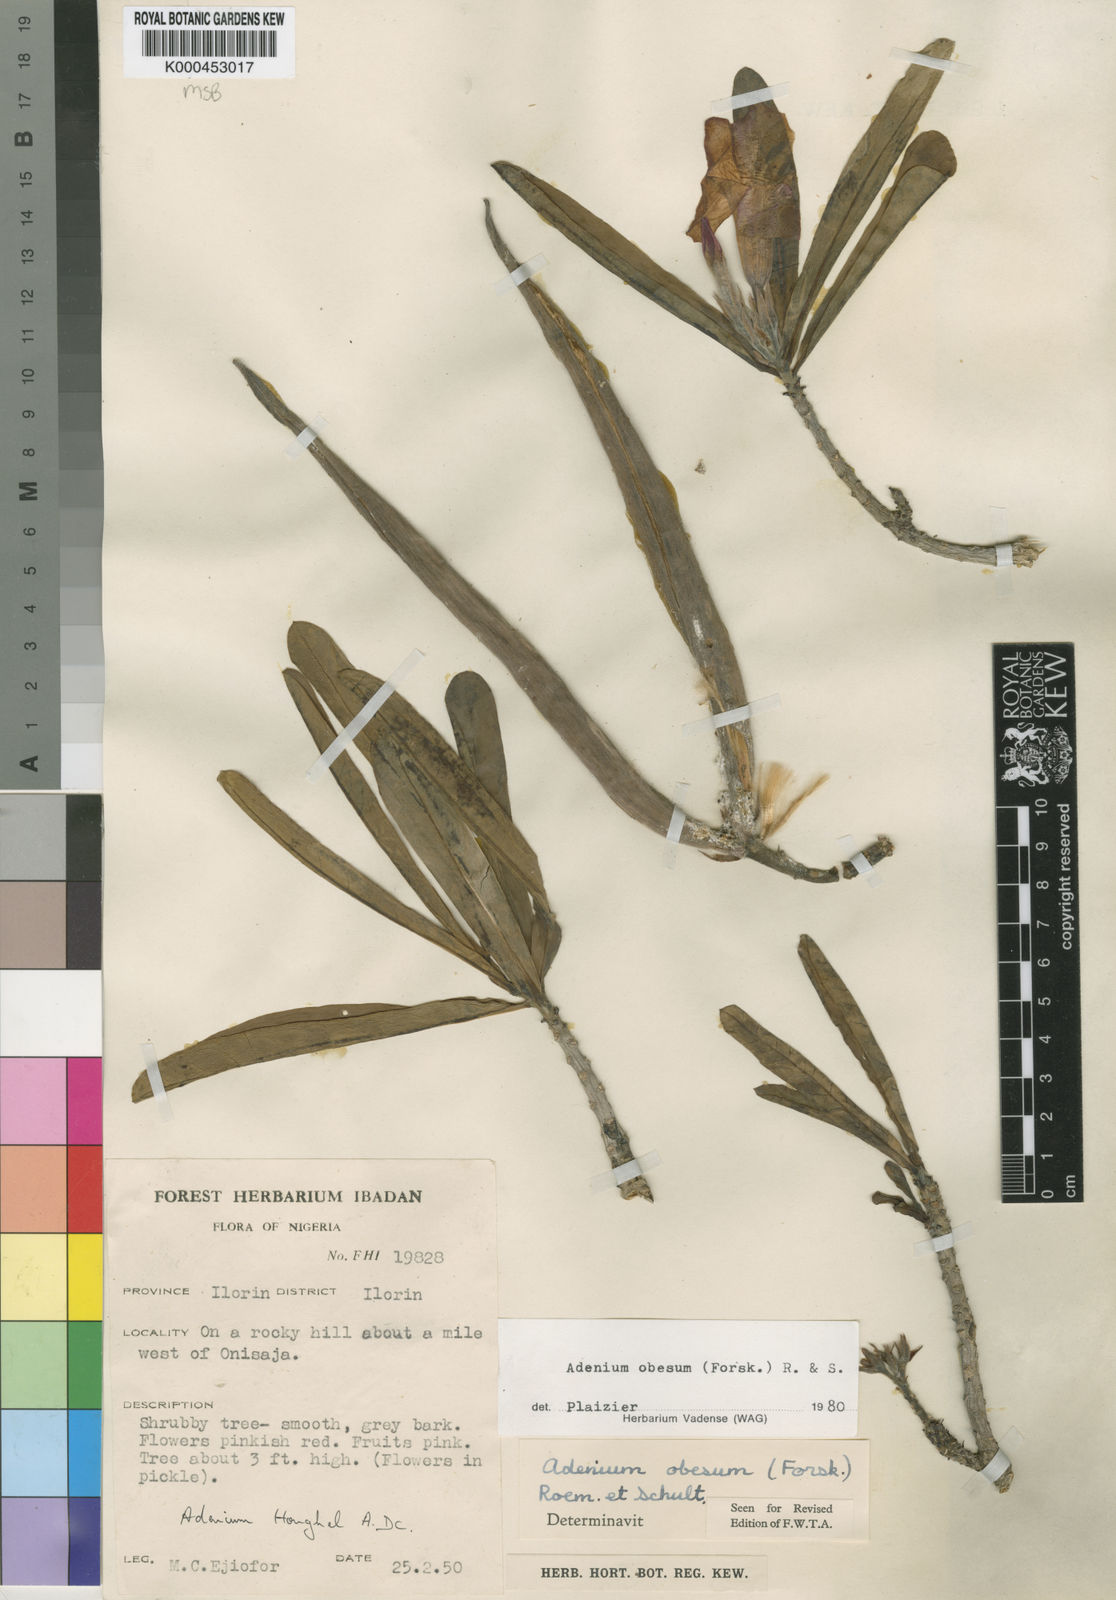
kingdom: Plantae
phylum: Tracheophyta
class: Magnoliopsida
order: Gentianales
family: Apocynaceae
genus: Adenium
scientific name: Adenium obesum
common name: Desert-rose
